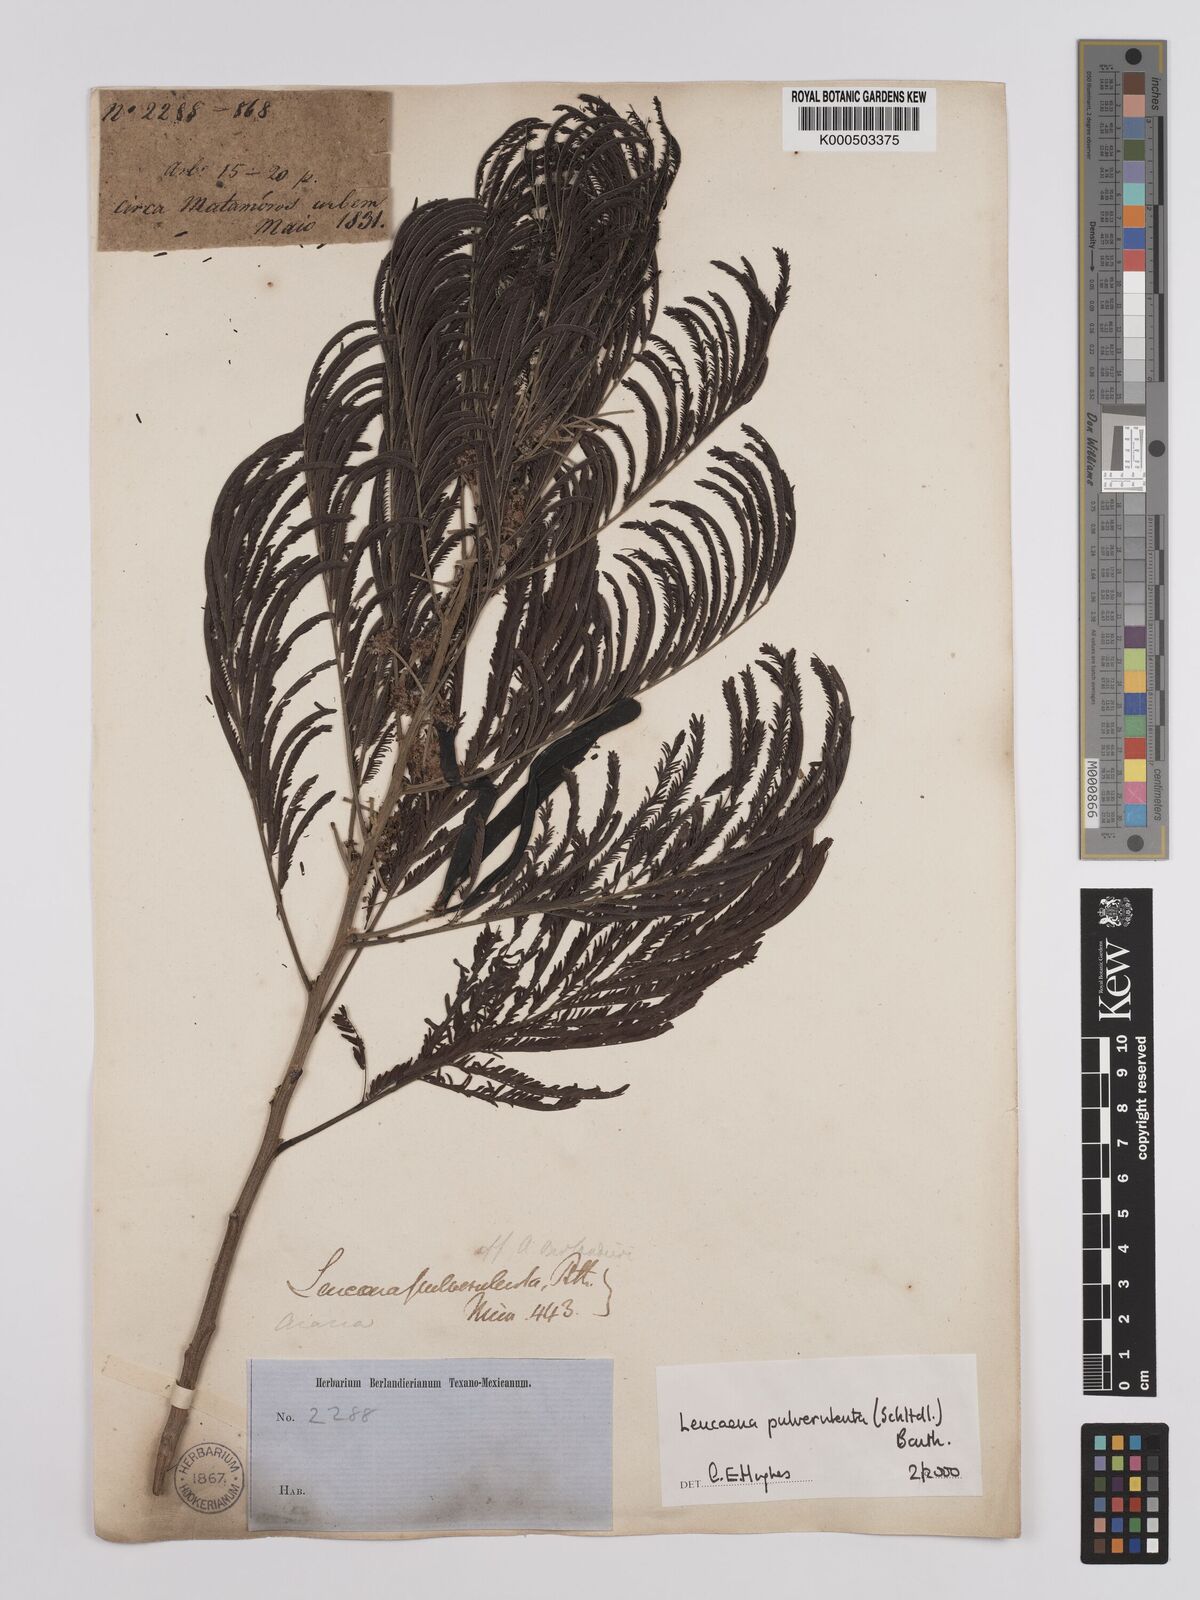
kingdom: Plantae
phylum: Tracheophyta
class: Magnoliopsida
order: Fabales
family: Fabaceae
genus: Leucaena
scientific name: Leucaena pulverulenta
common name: Great leadtree
